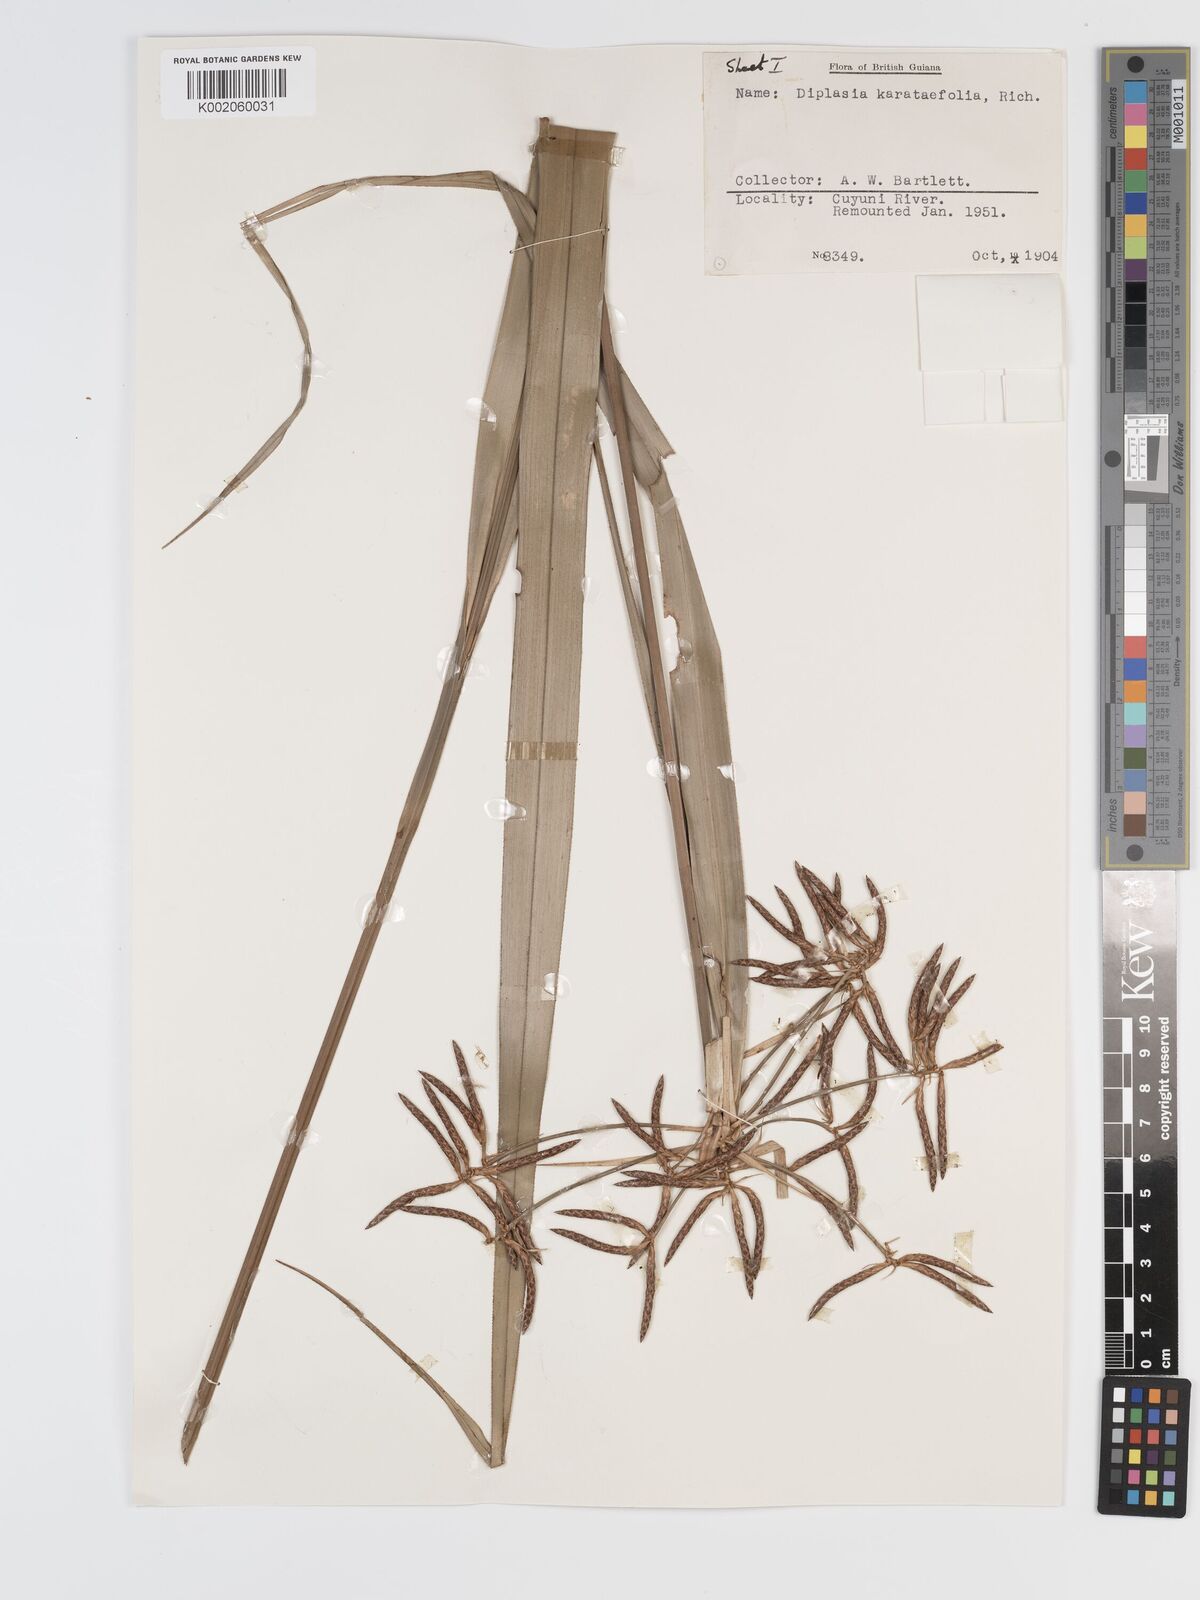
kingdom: Plantae
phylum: Tracheophyta
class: Liliopsida
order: Poales
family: Cyperaceae
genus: Diplasia
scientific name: Diplasia karatifolia
